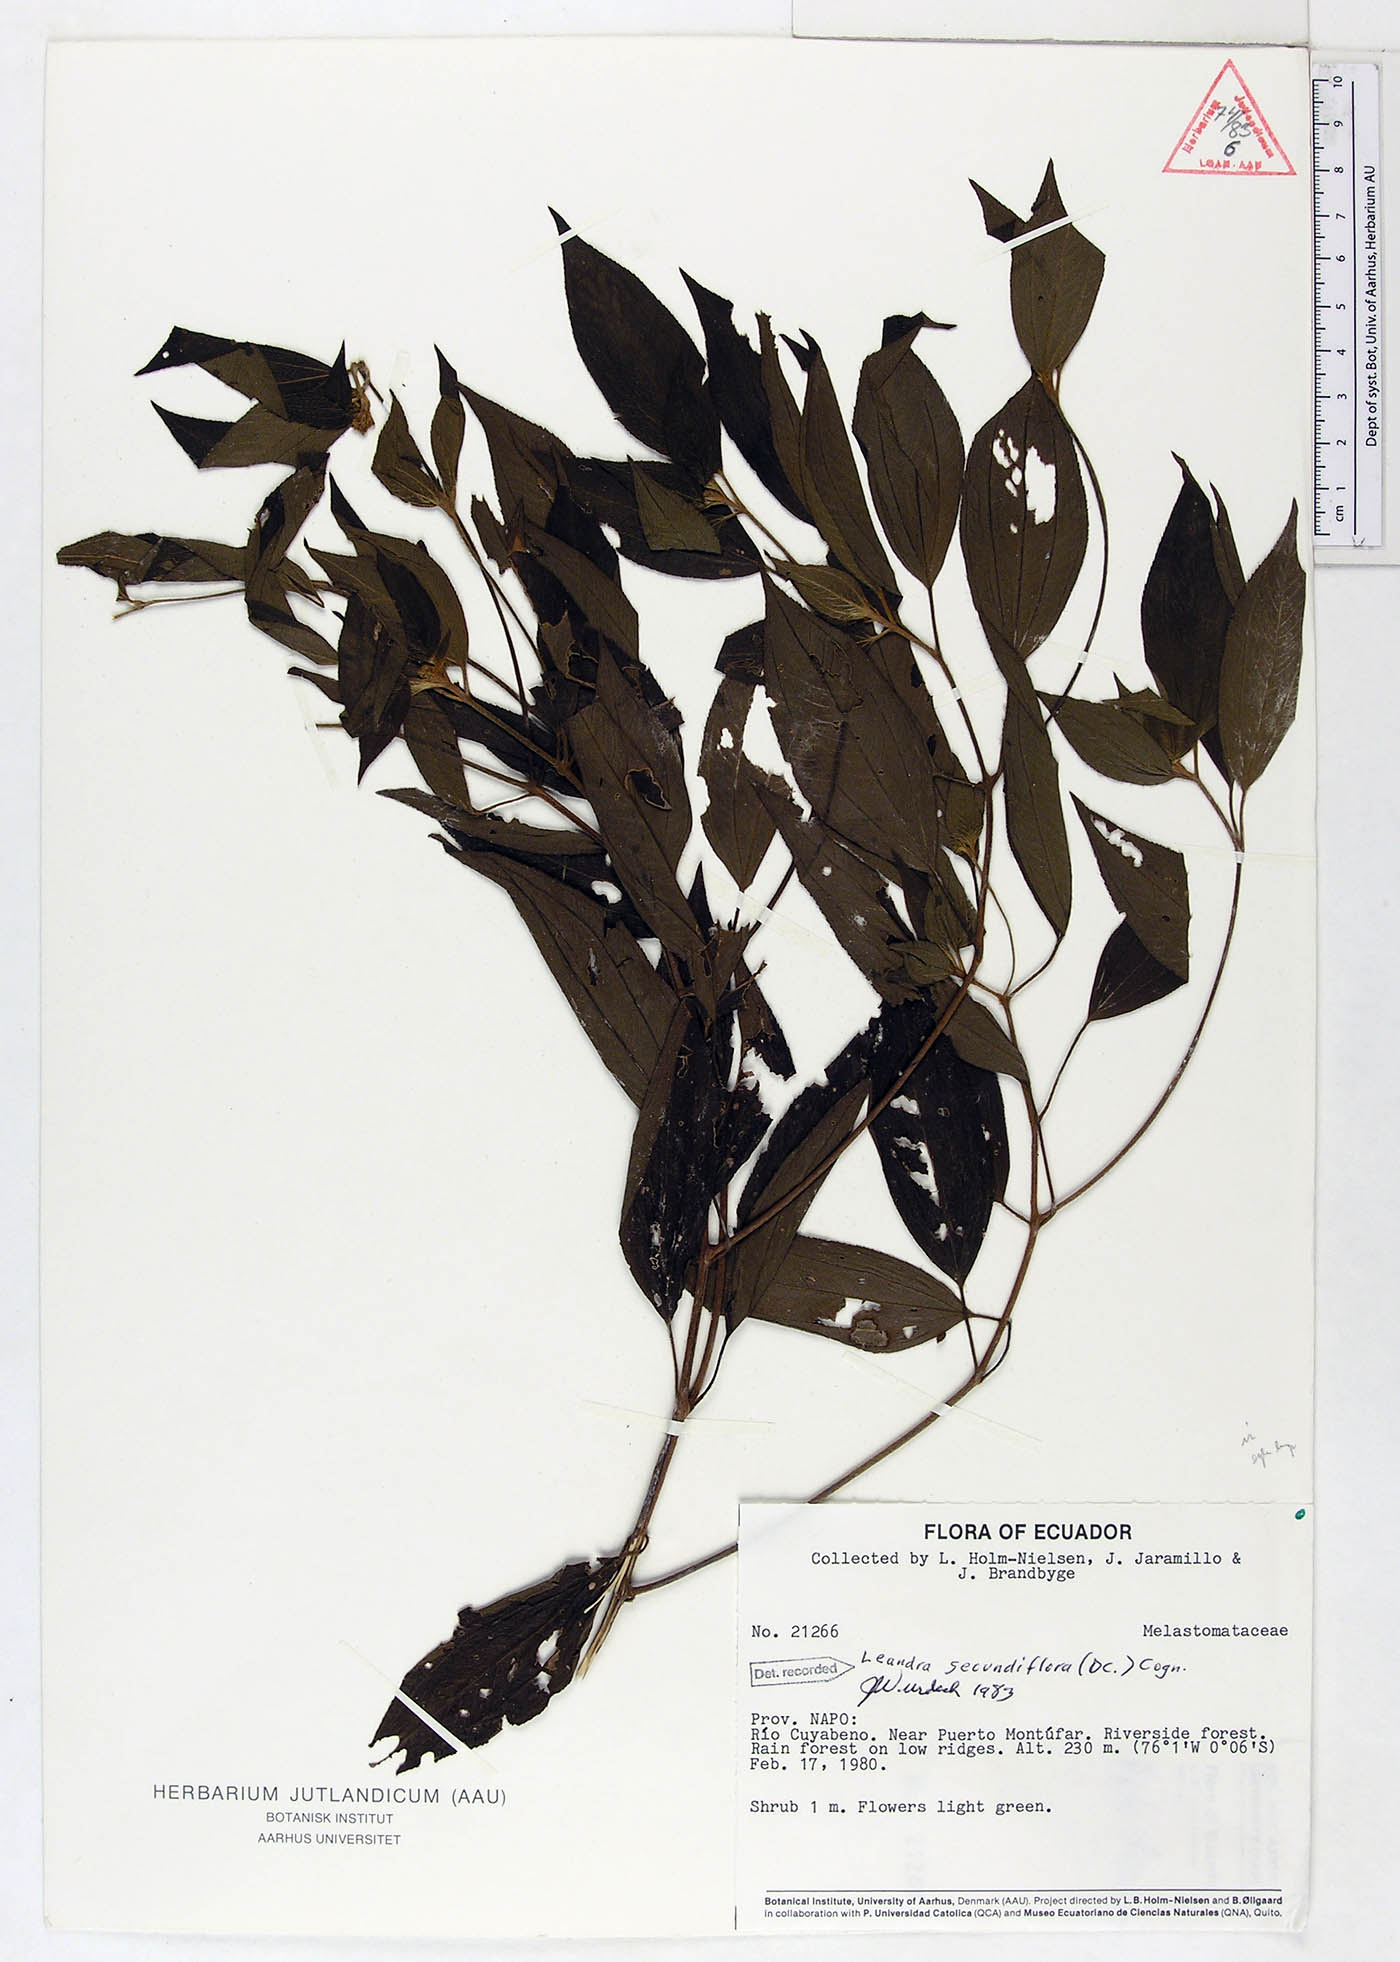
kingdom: Plantae
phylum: Tracheophyta
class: Magnoliopsida
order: Myrtales
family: Melastomataceae
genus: Miconia
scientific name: Miconia neosecundiflora
